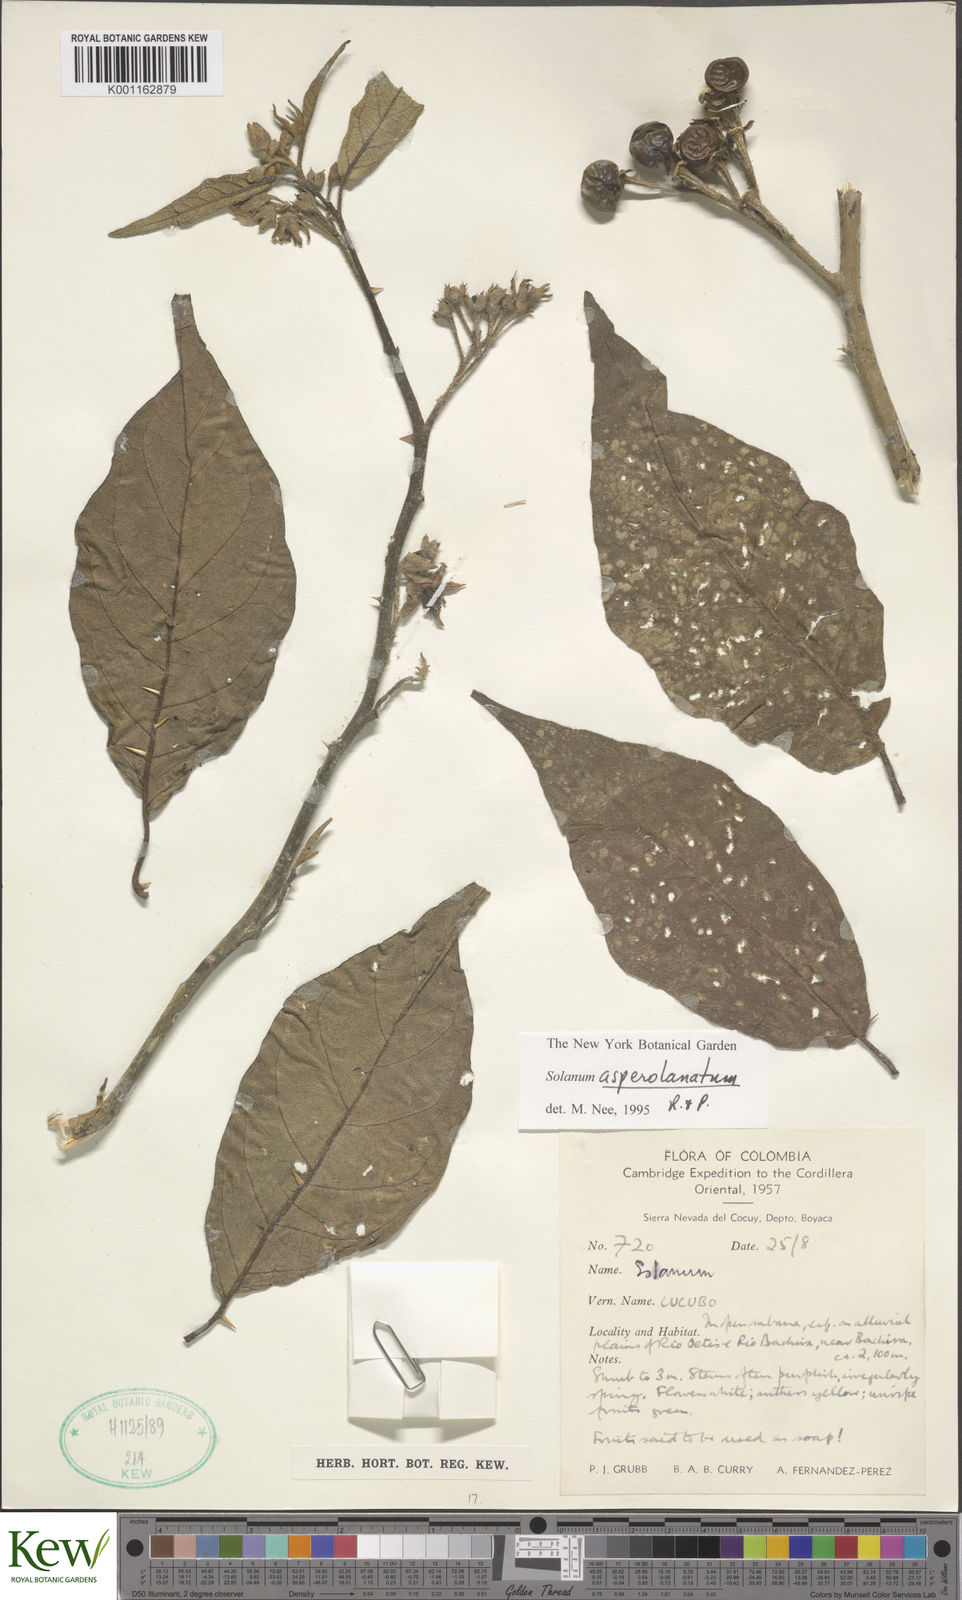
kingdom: Plantae
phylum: Tracheophyta
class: Magnoliopsida
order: Solanales
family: Solanaceae
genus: Solanum
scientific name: Solanum asperolanatum
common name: Devil's-fig
